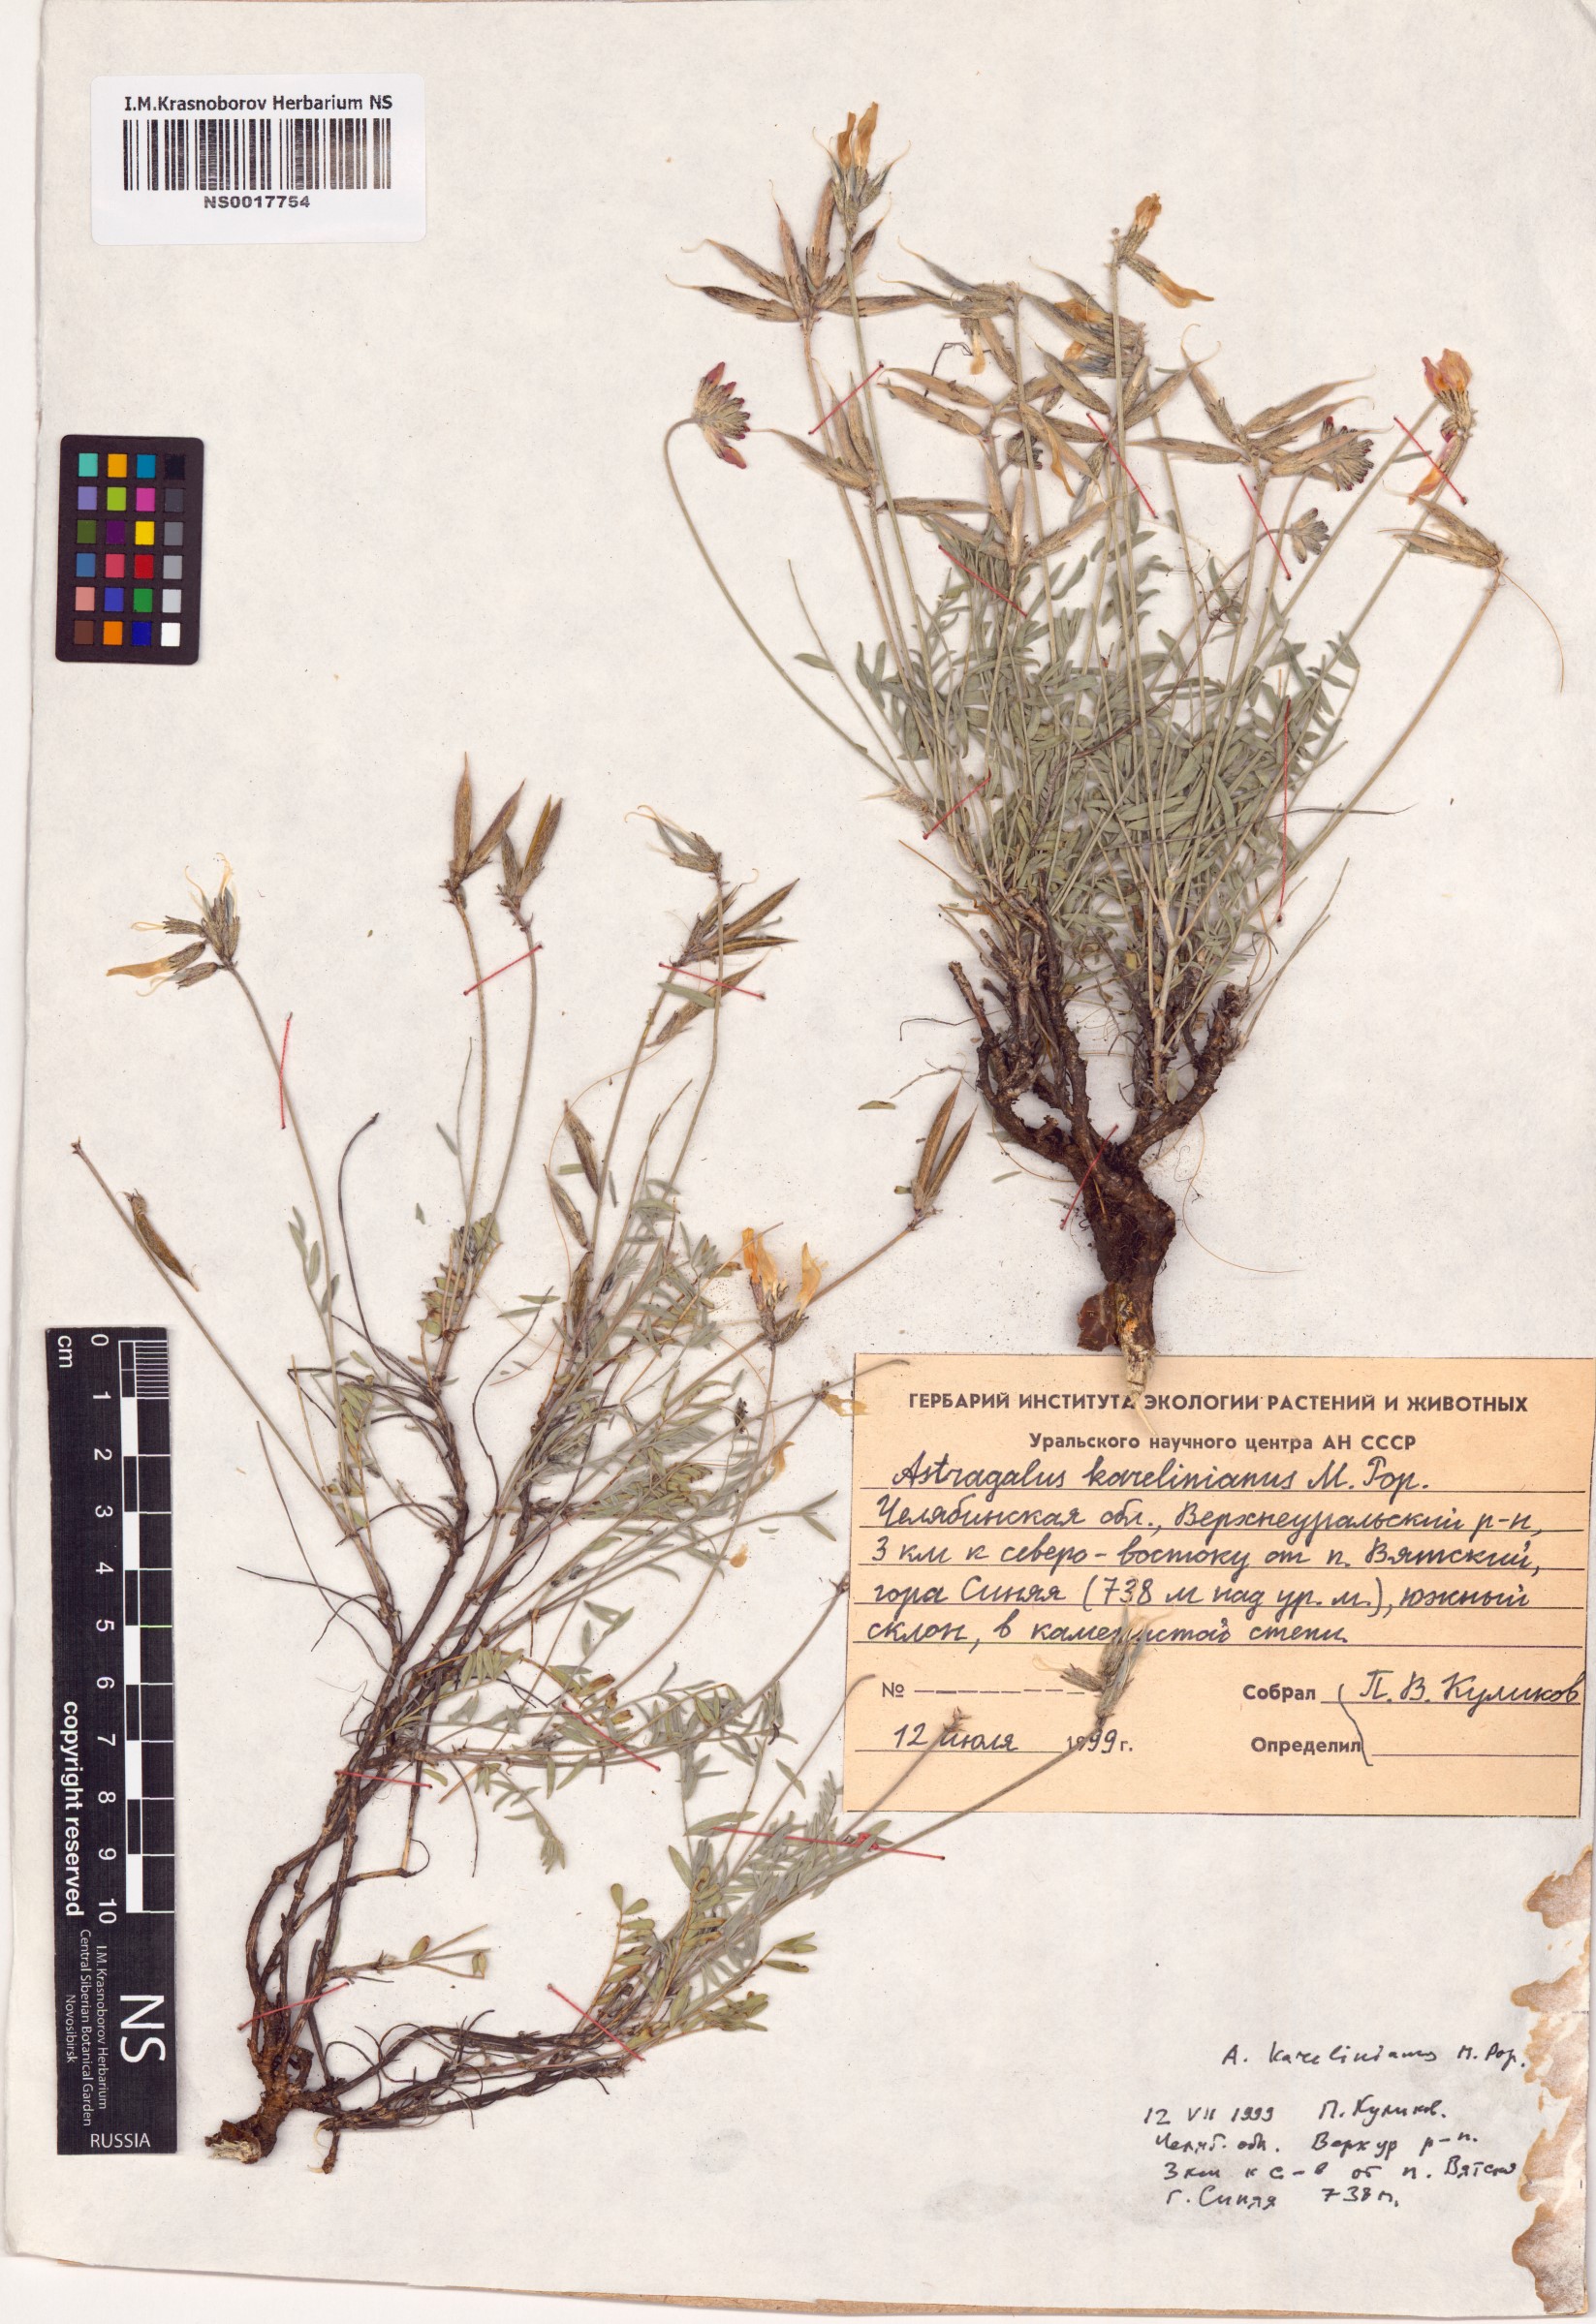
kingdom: Plantae
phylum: Tracheophyta
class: Magnoliopsida
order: Fabales
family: Fabaceae
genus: Astragalus
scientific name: Astragalus karelinianus
